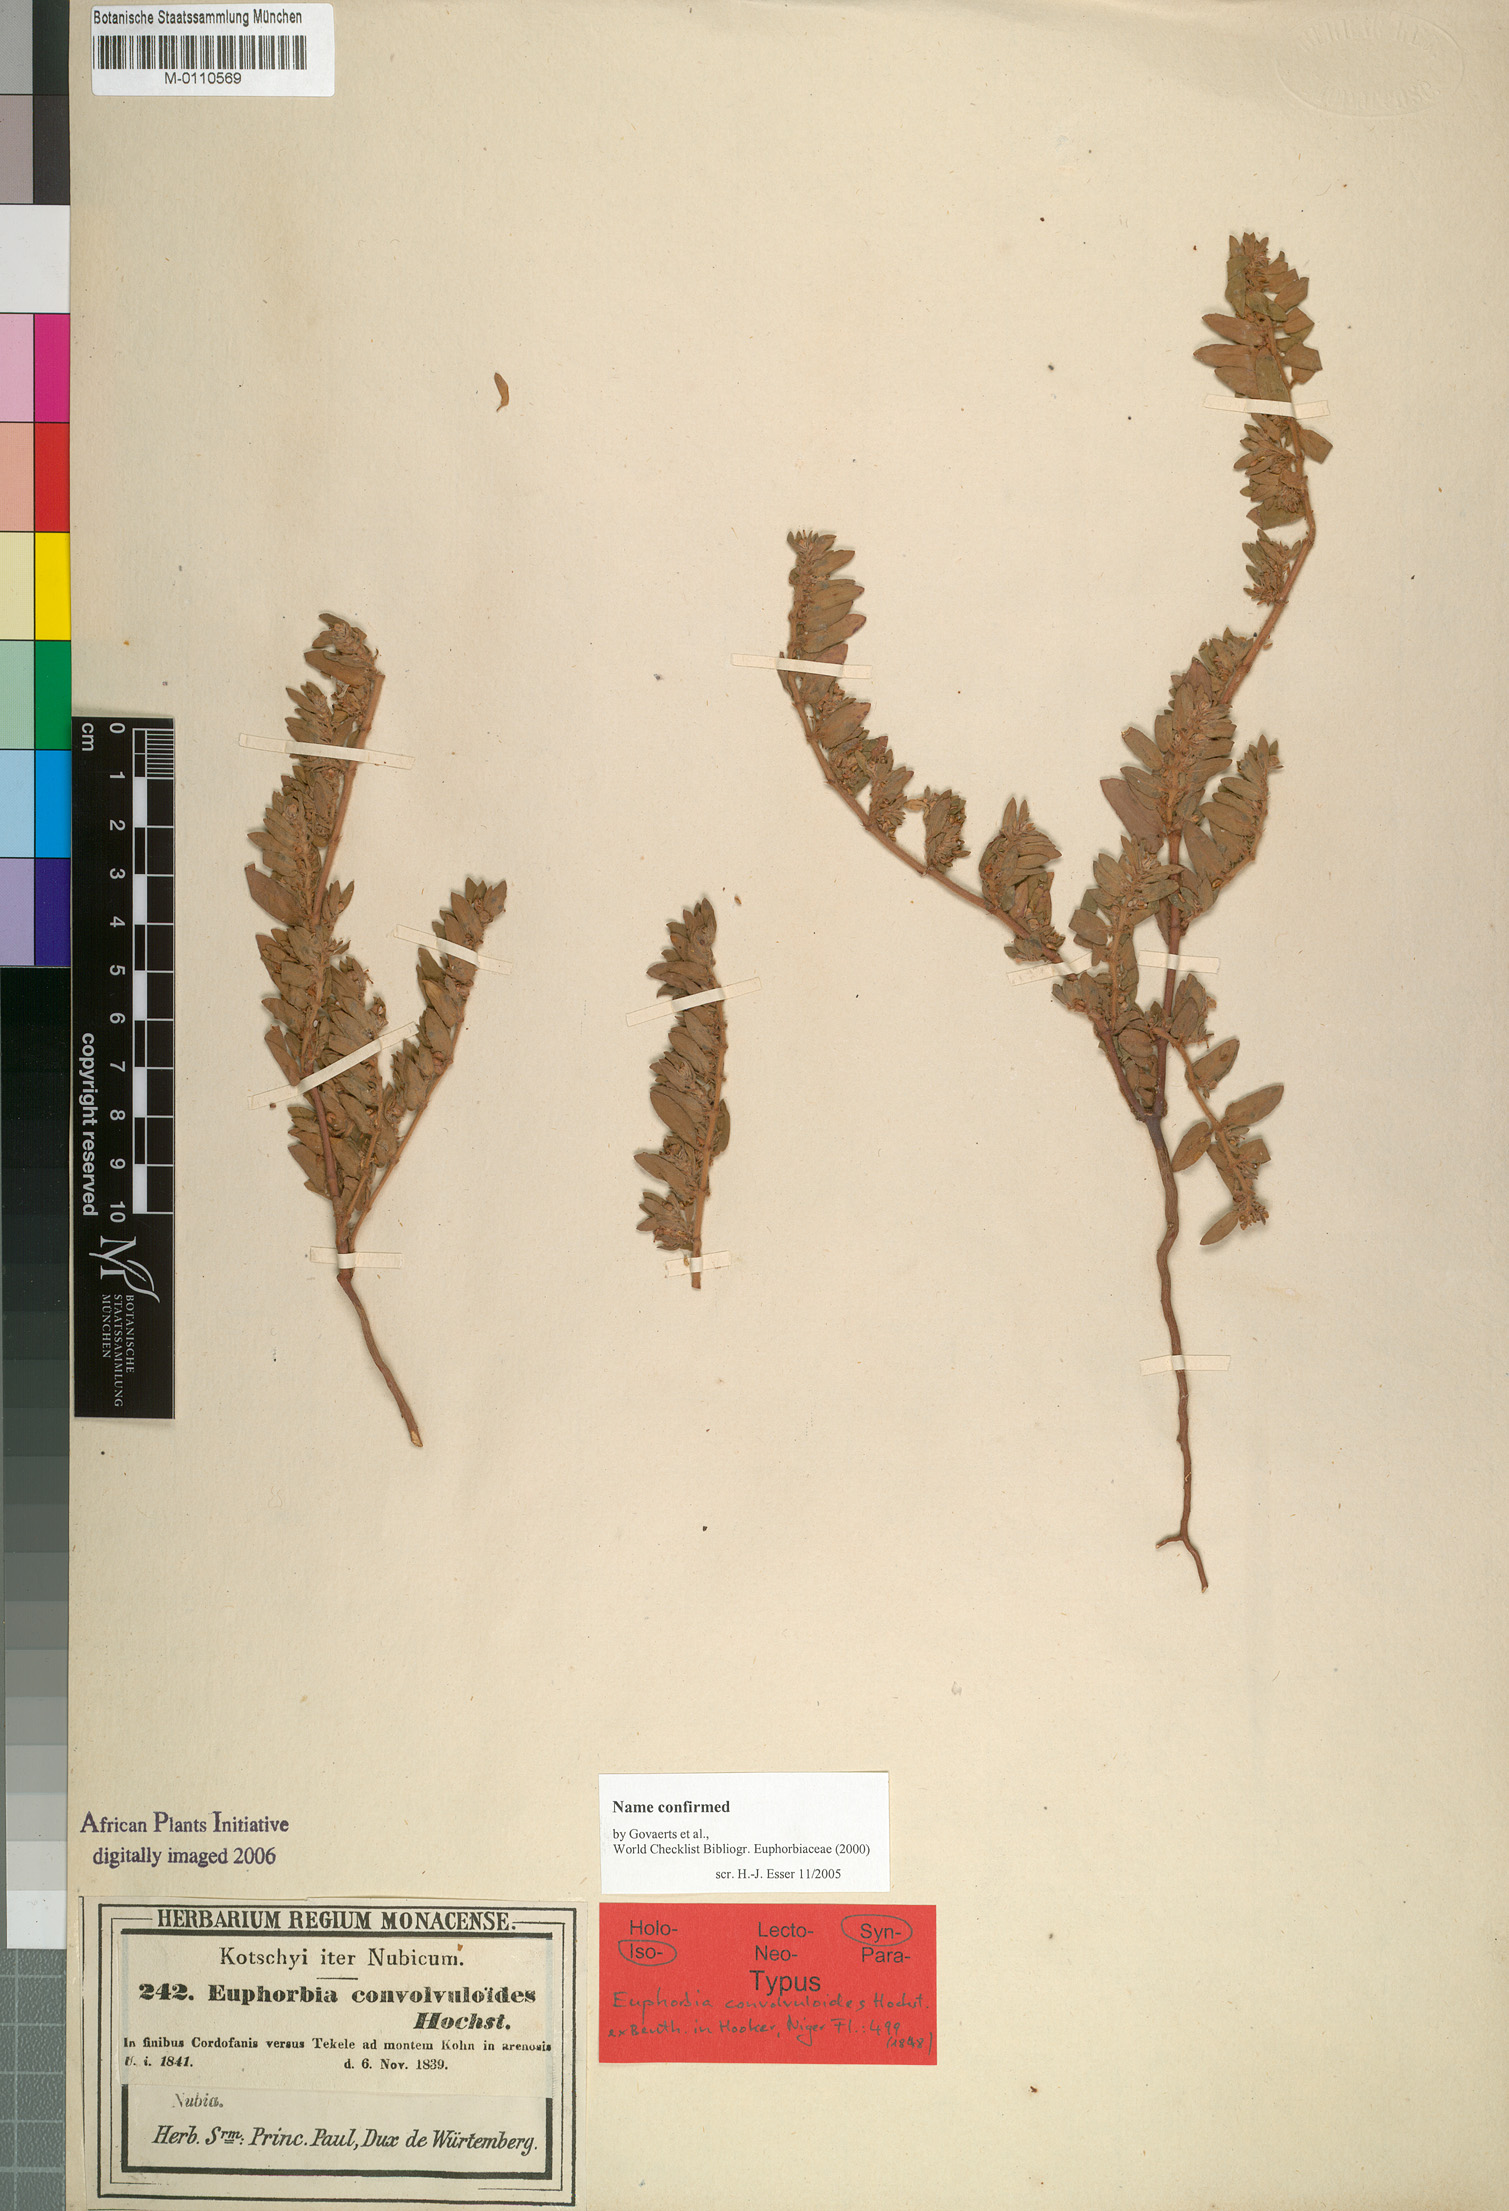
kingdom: Plantae
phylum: Tracheophyta
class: Magnoliopsida
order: Malpighiales
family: Euphorbiaceae
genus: Euphorbia
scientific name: Euphorbia convolvuloides
